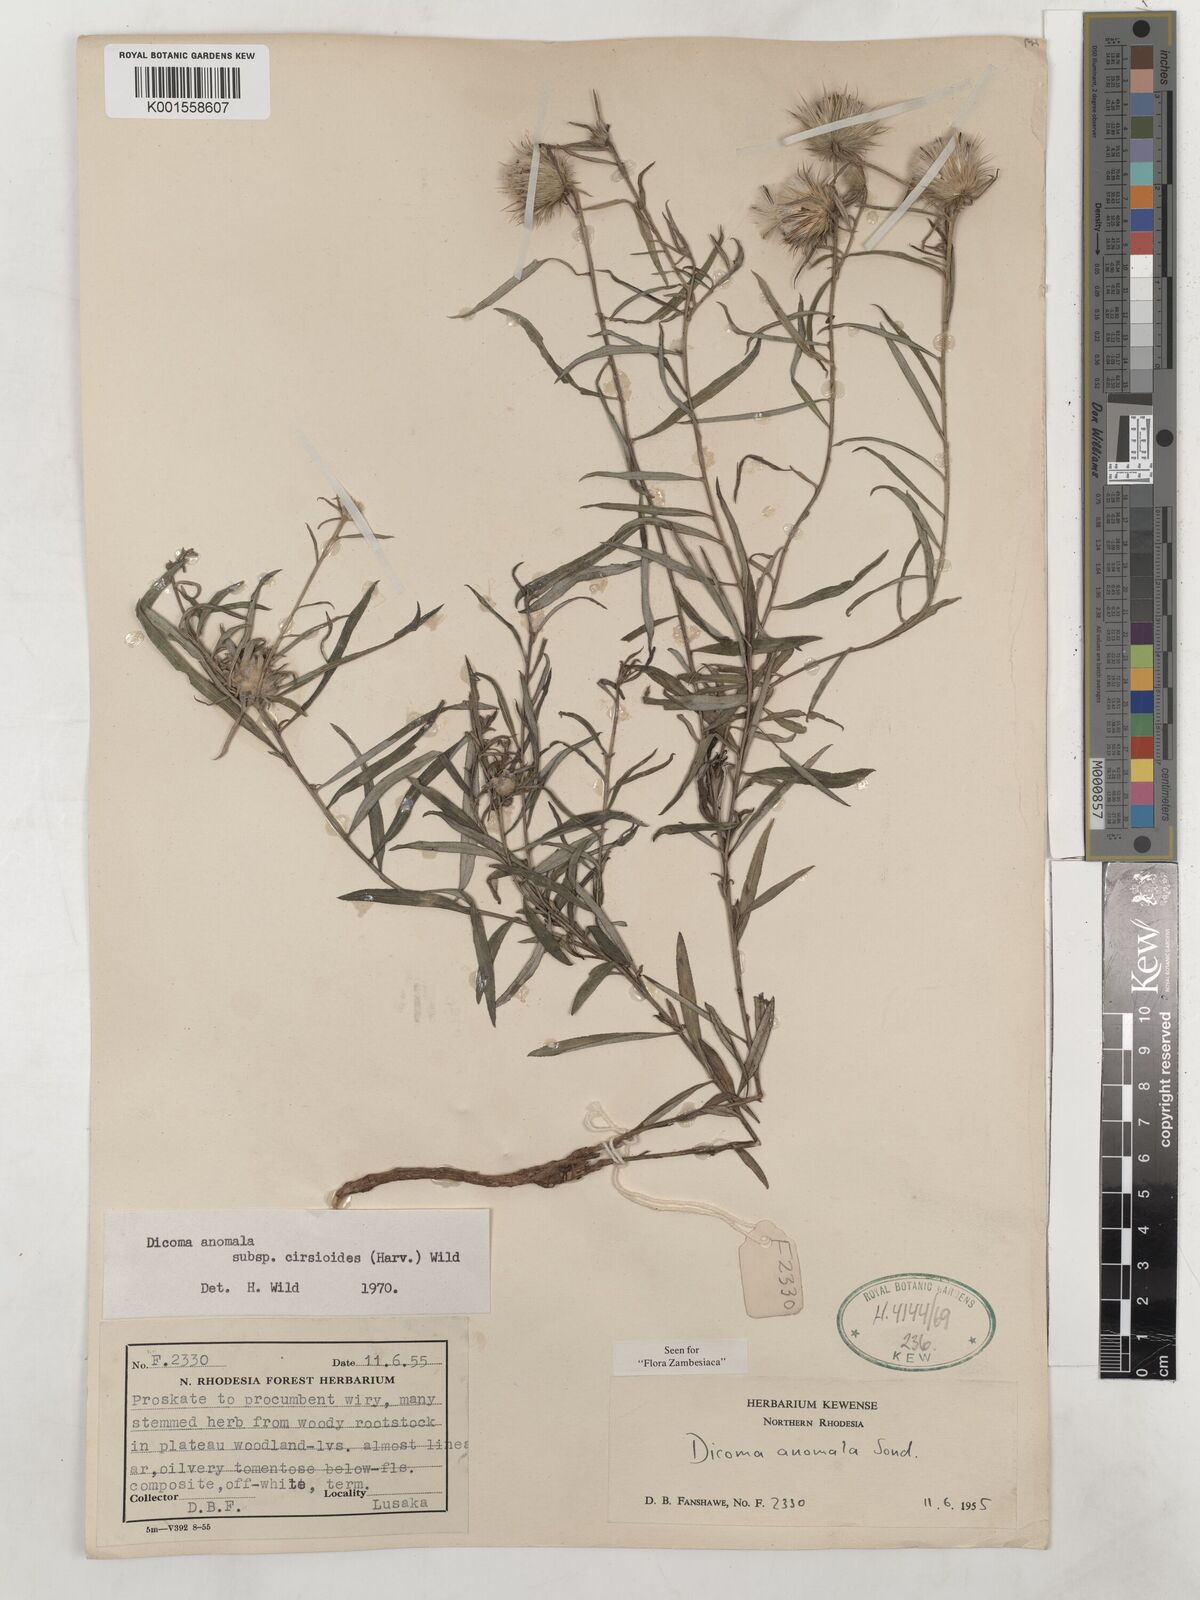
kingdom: Plantae
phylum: Tracheophyta
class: Magnoliopsida
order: Asterales
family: Asteraceae
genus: Dicoma
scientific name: Dicoma anomala
